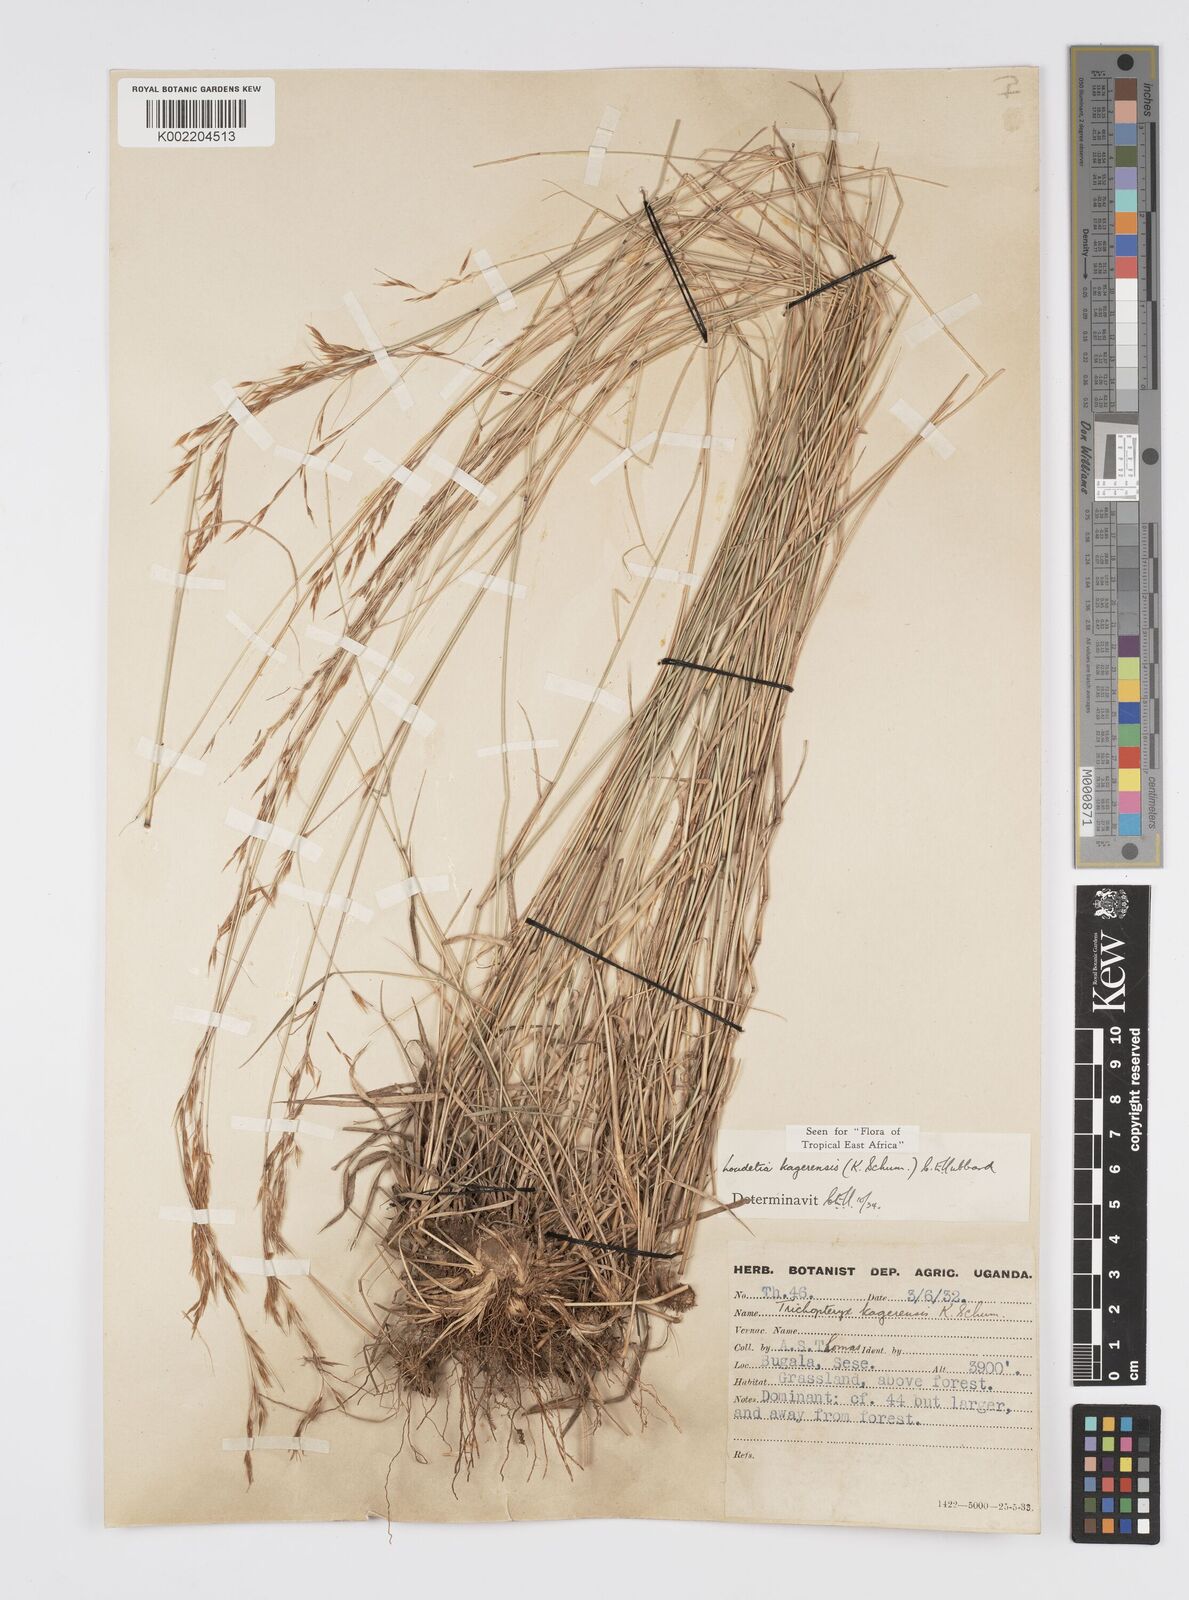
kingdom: Plantae
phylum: Tracheophyta
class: Liliopsida
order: Poales
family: Poaceae
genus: Loudetia
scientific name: Loudetia kagerensis
